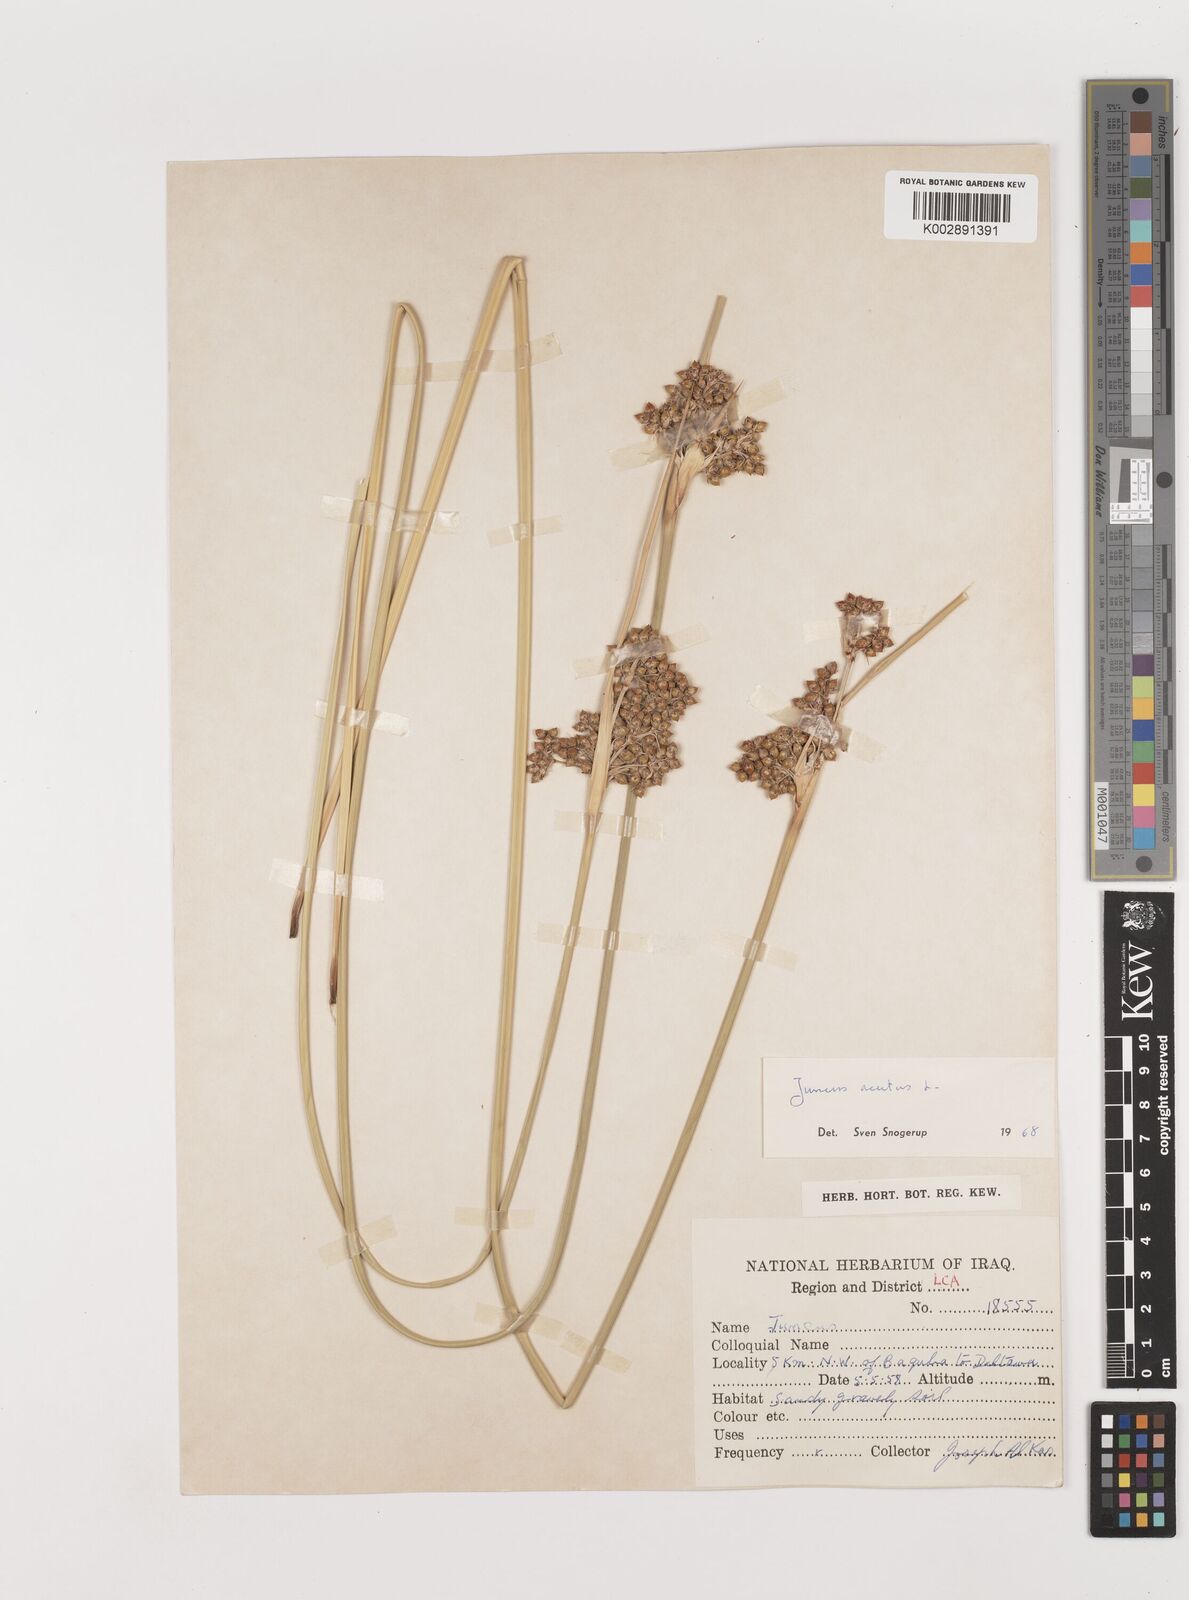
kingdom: Plantae
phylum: Tracheophyta
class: Liliopsida
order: Poales
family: Juncaceae
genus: Juncus
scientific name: Juncus acutus
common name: Sharp rush
